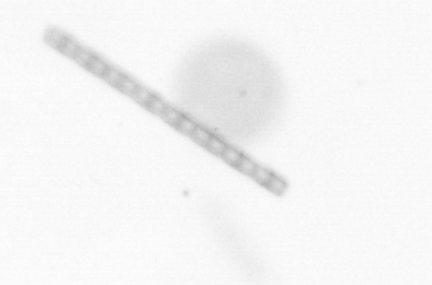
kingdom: Chromista
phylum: Ochrophyta
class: Bacillariophyceae
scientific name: Bacillariophyceae
